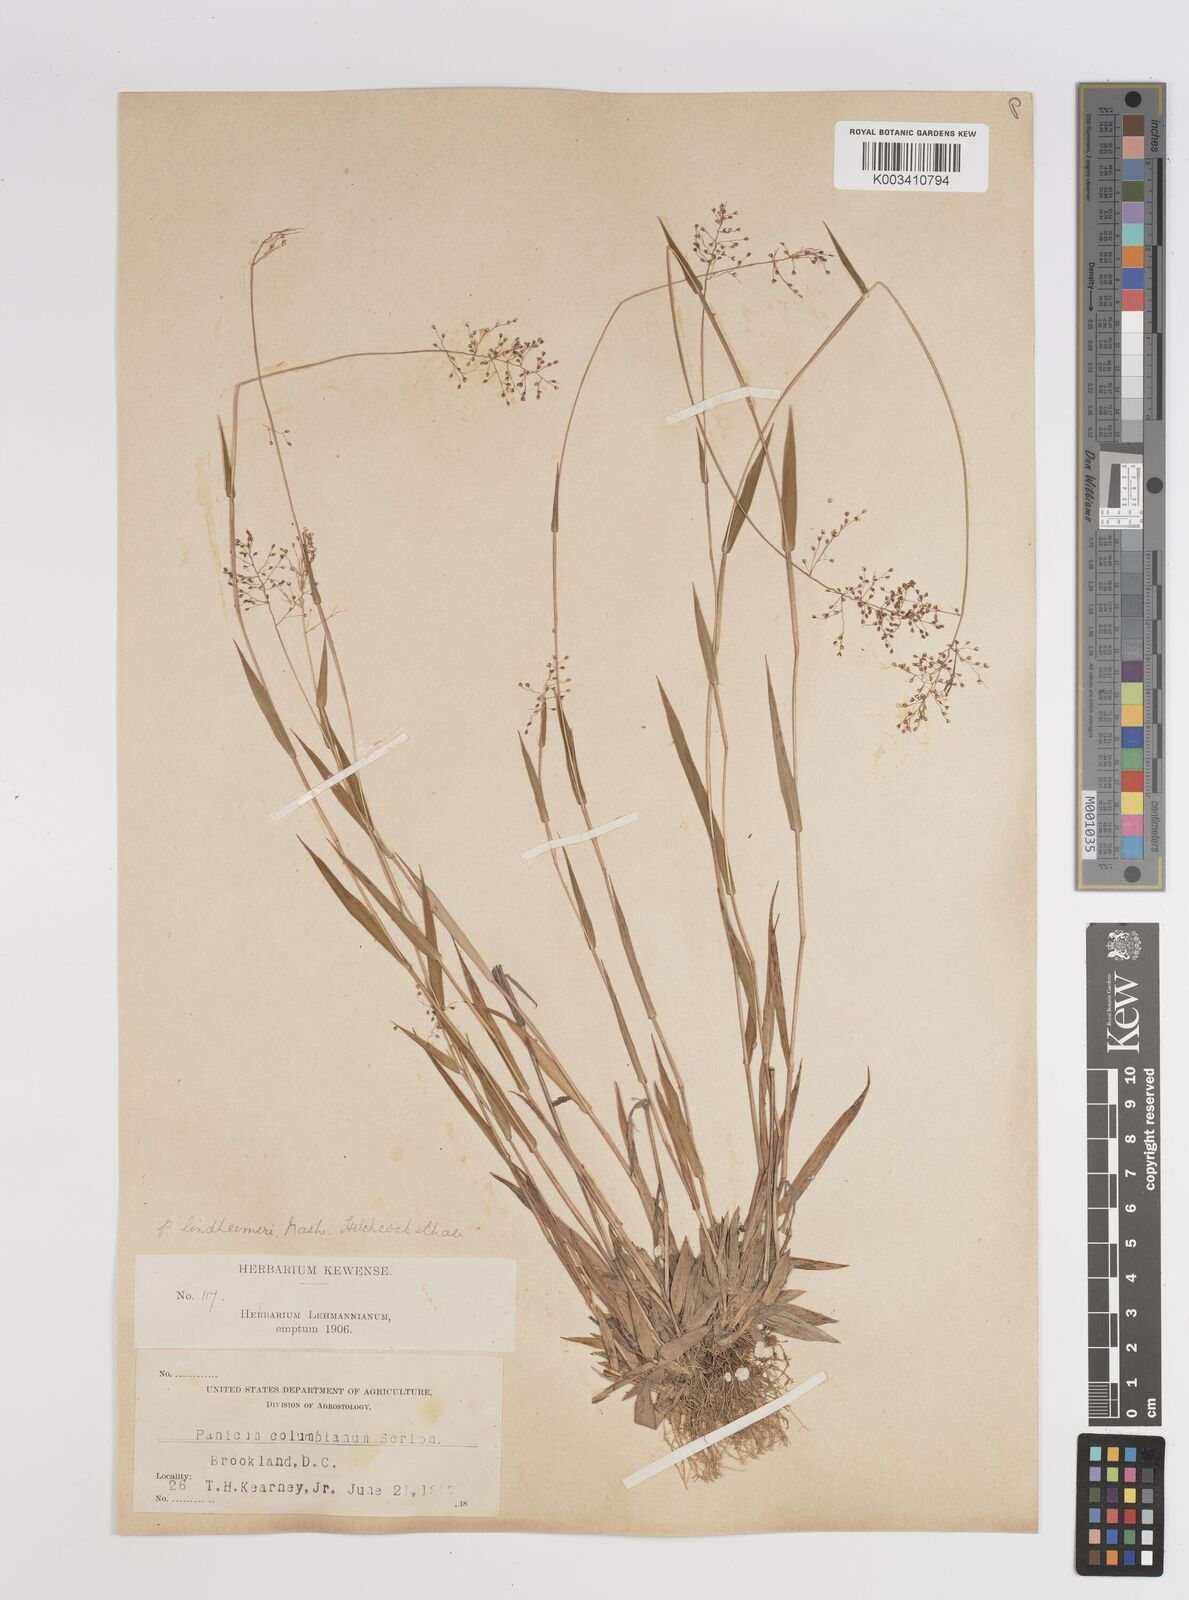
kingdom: Plantae
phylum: Tracheophyta
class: Liliopsida
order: Poales
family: Poaceae
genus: Dichanthelium
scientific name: Dichanthelium acuminatum
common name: Hairy panic grass
